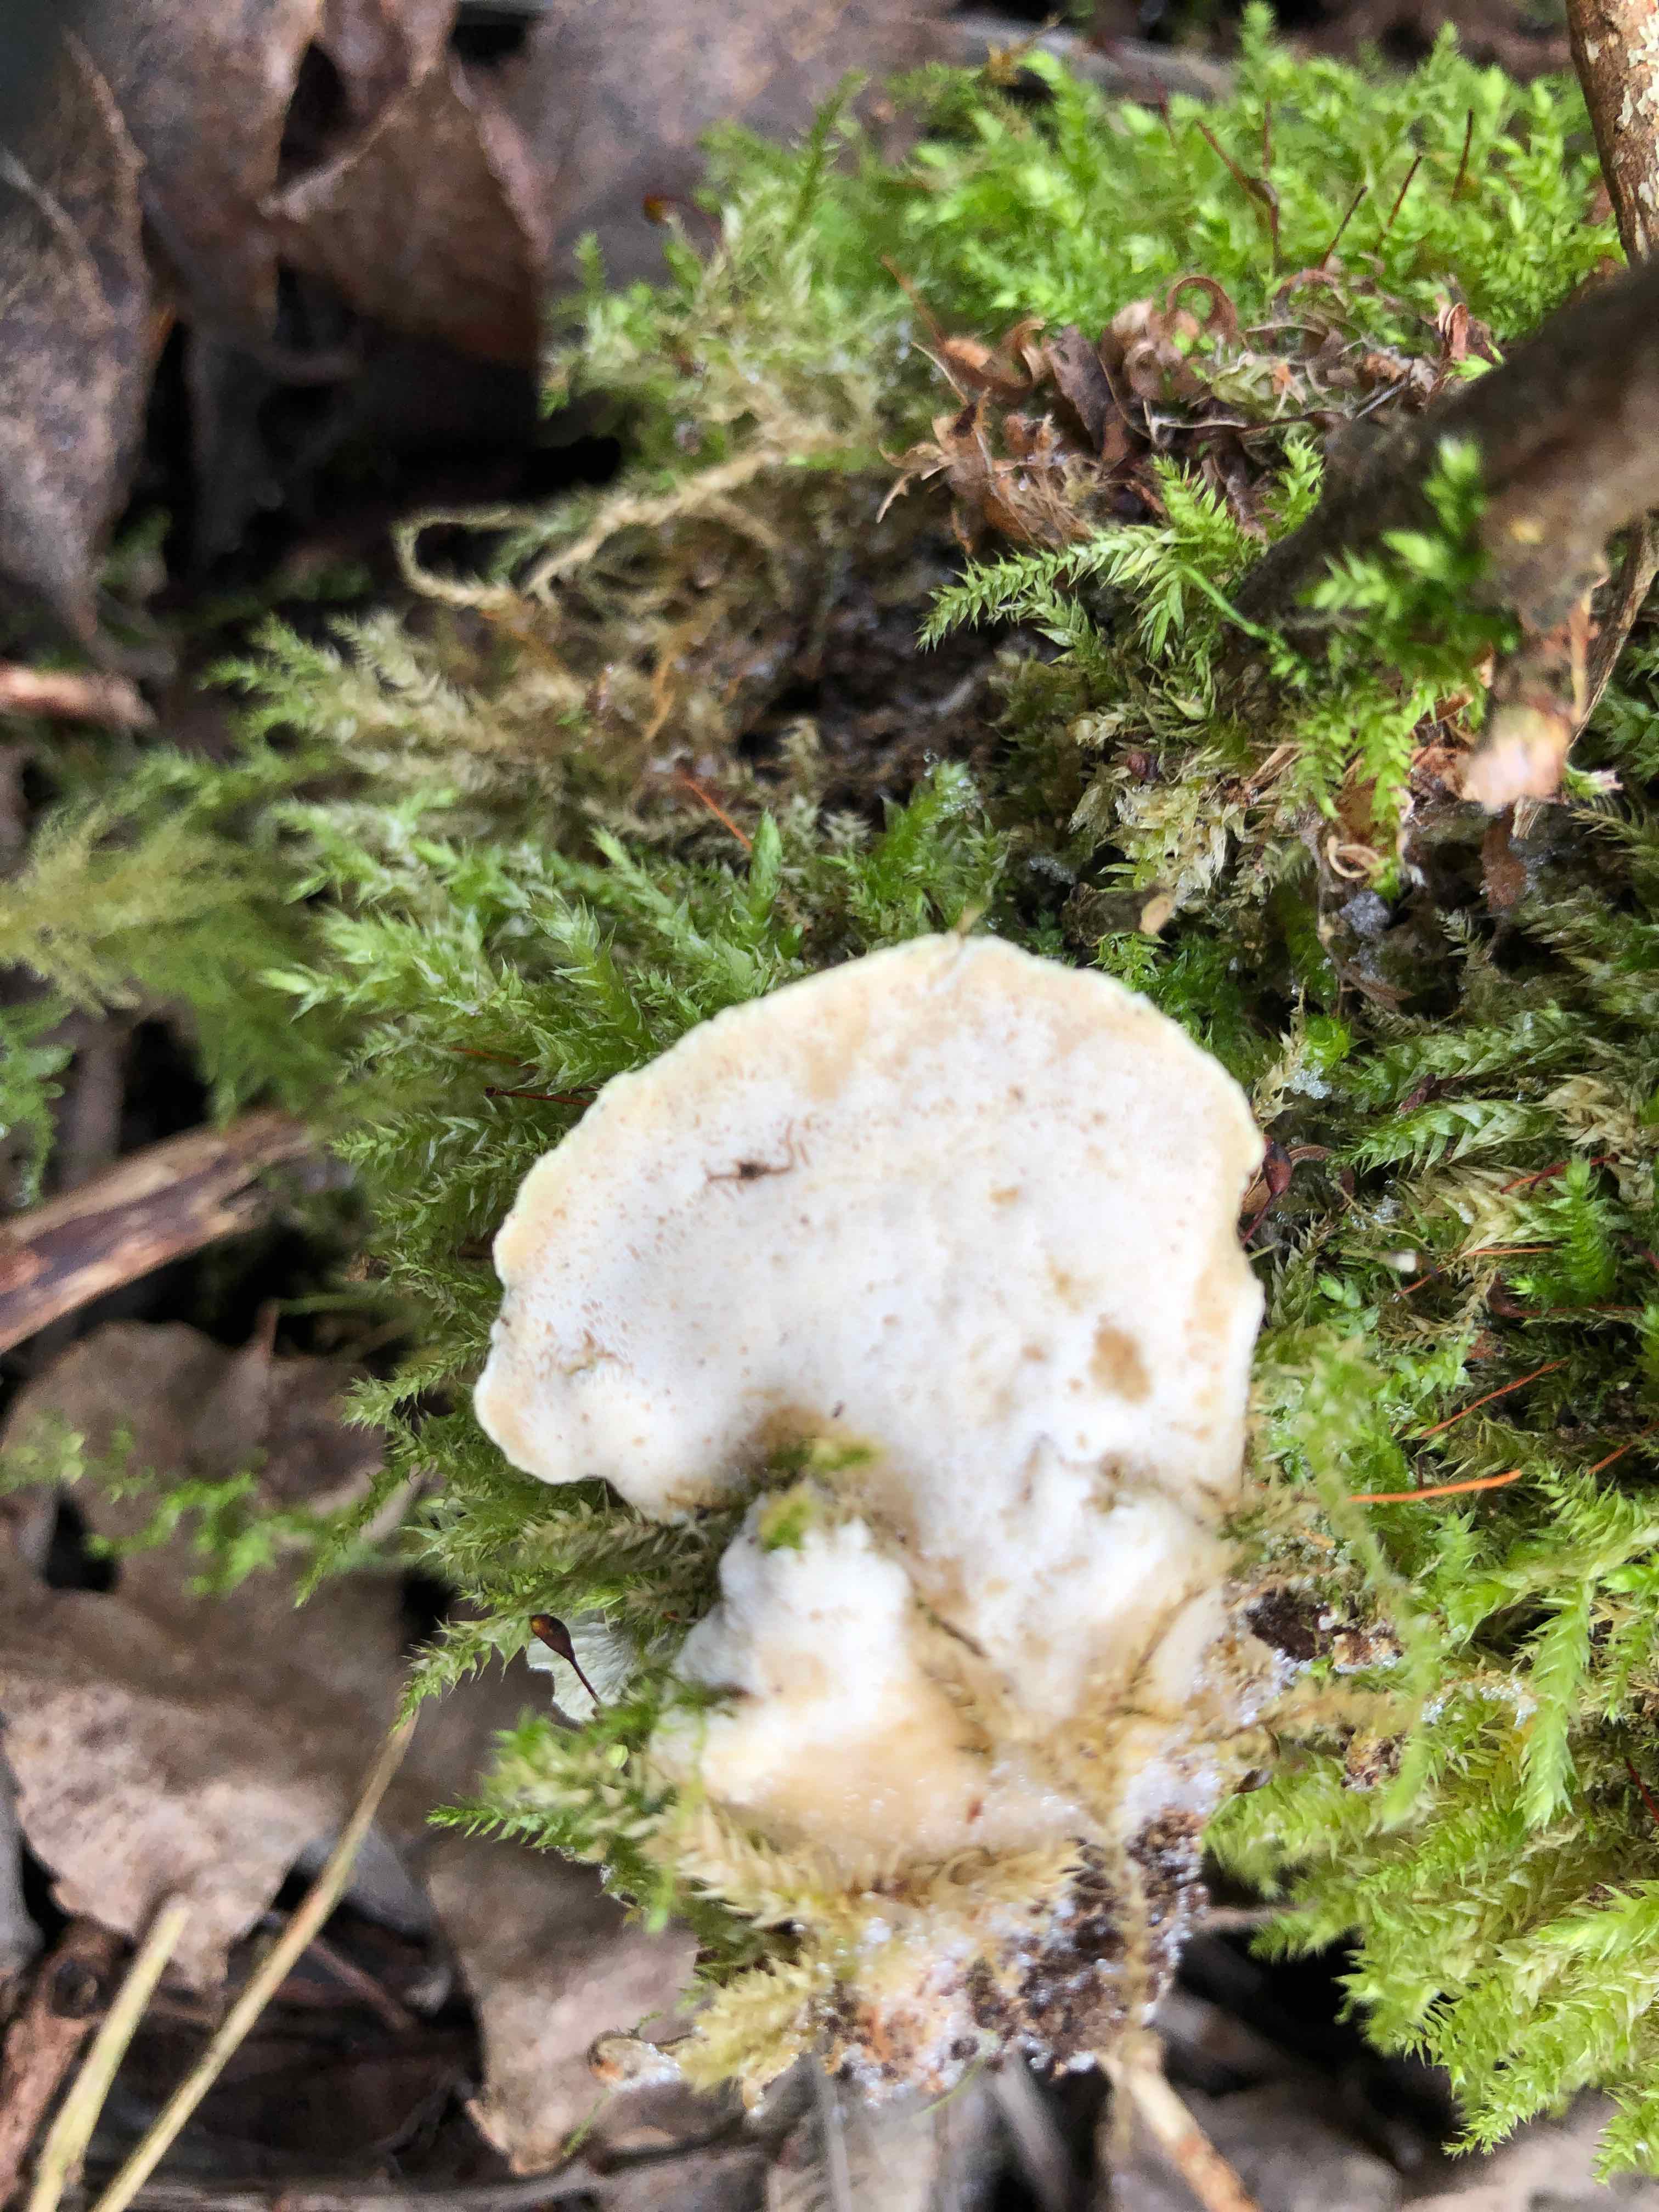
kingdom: Fungi
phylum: Basidiomycota
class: Agaricomycetes
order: Hymenochaetales
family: Oxyporaceae
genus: Oxyporus
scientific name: Oxyporus populinus
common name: sammenvokset trylleporesvamp
